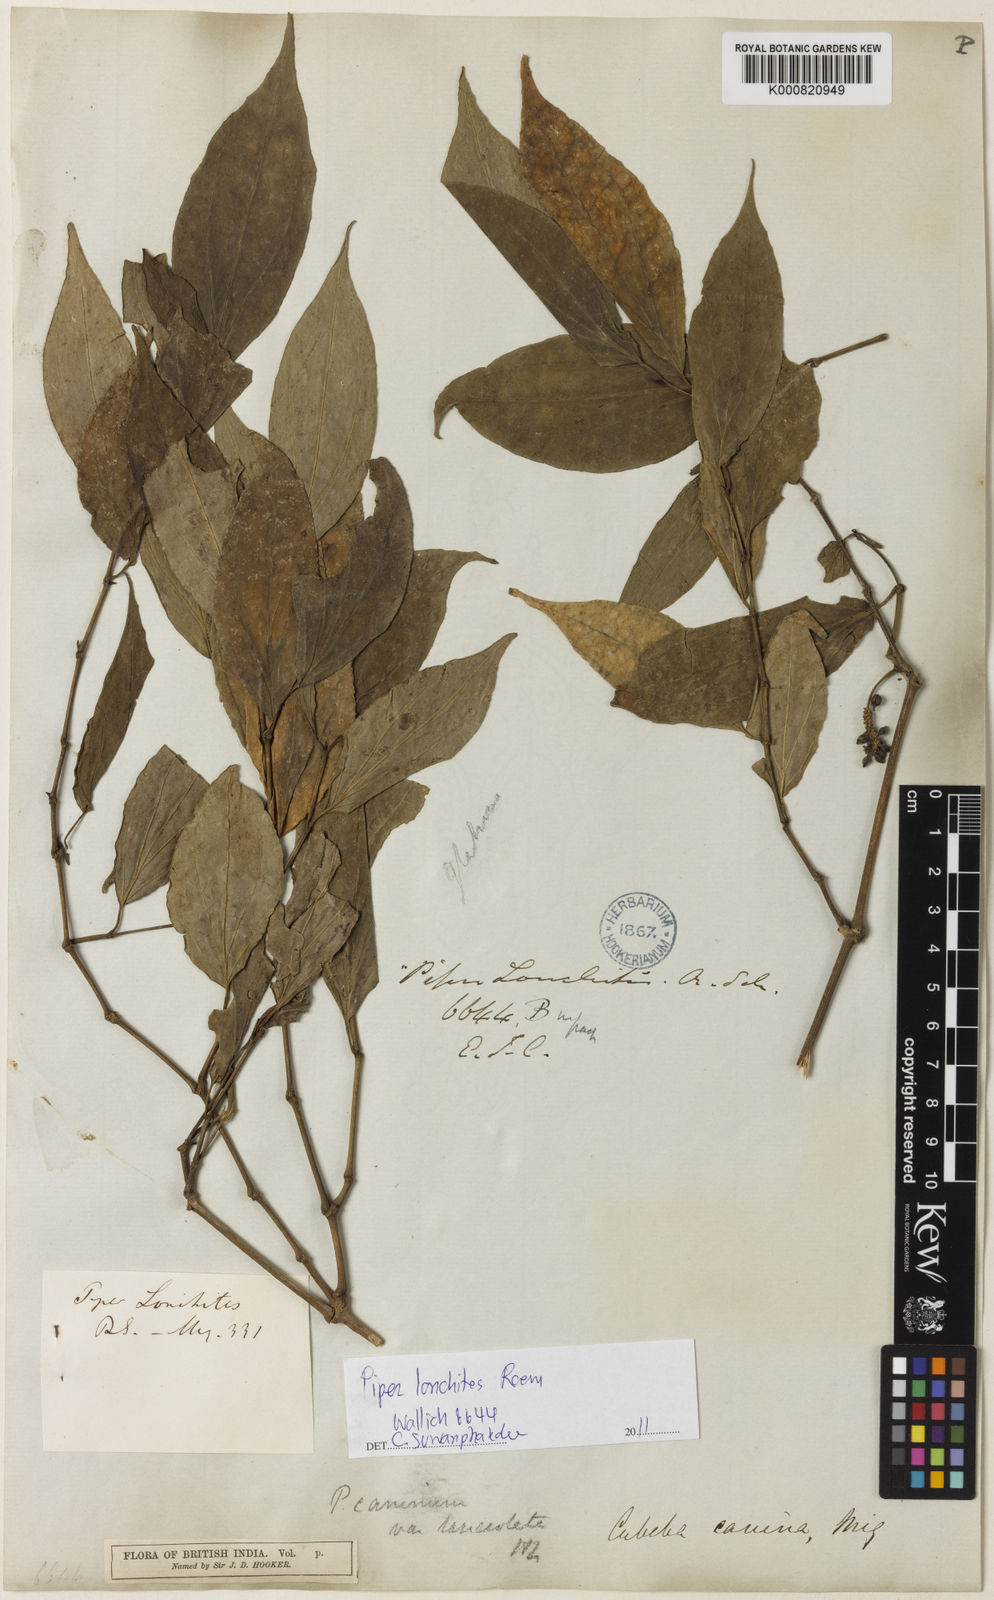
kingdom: Plantae
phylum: Tracheophyta
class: Magnoliopsida
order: Piperales
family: Piperaceae
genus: Piper
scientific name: Piper
